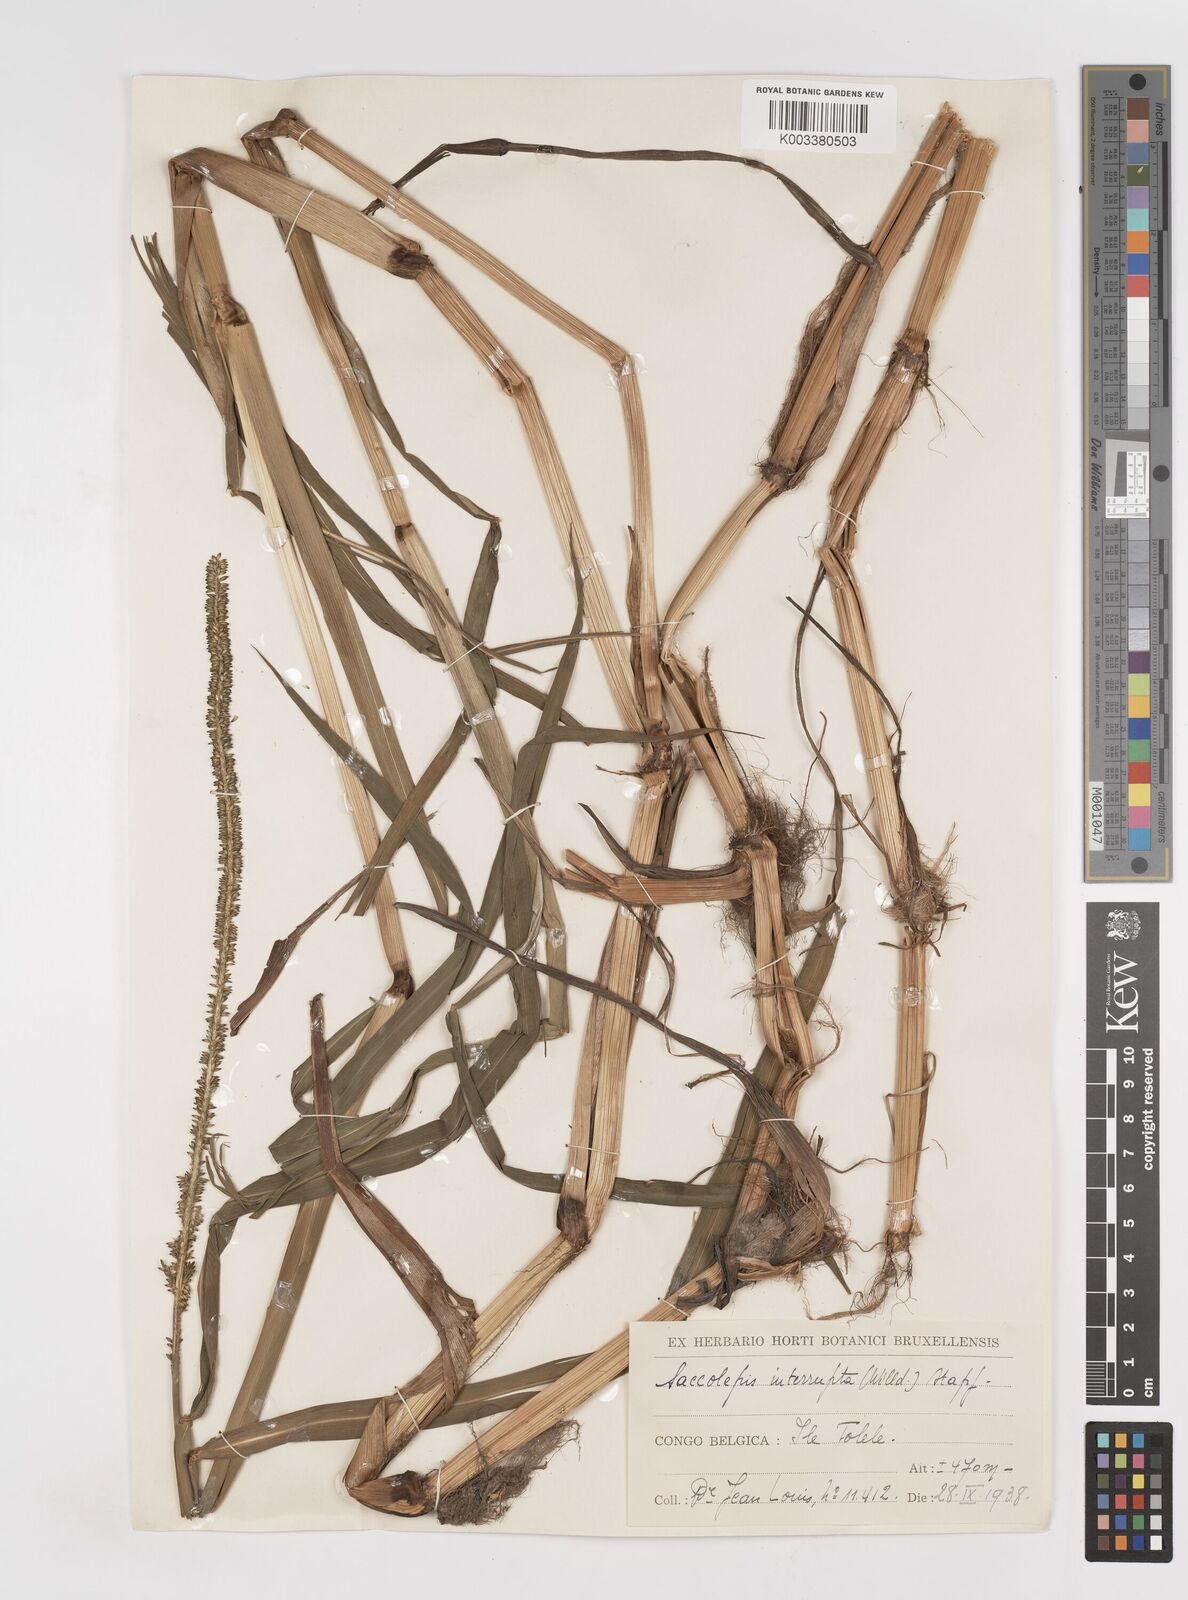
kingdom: Plantae
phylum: Tracheophyta
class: Liliopsida
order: Poales
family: Poaceae
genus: Sacciolepis
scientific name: Sacciolepis africana
